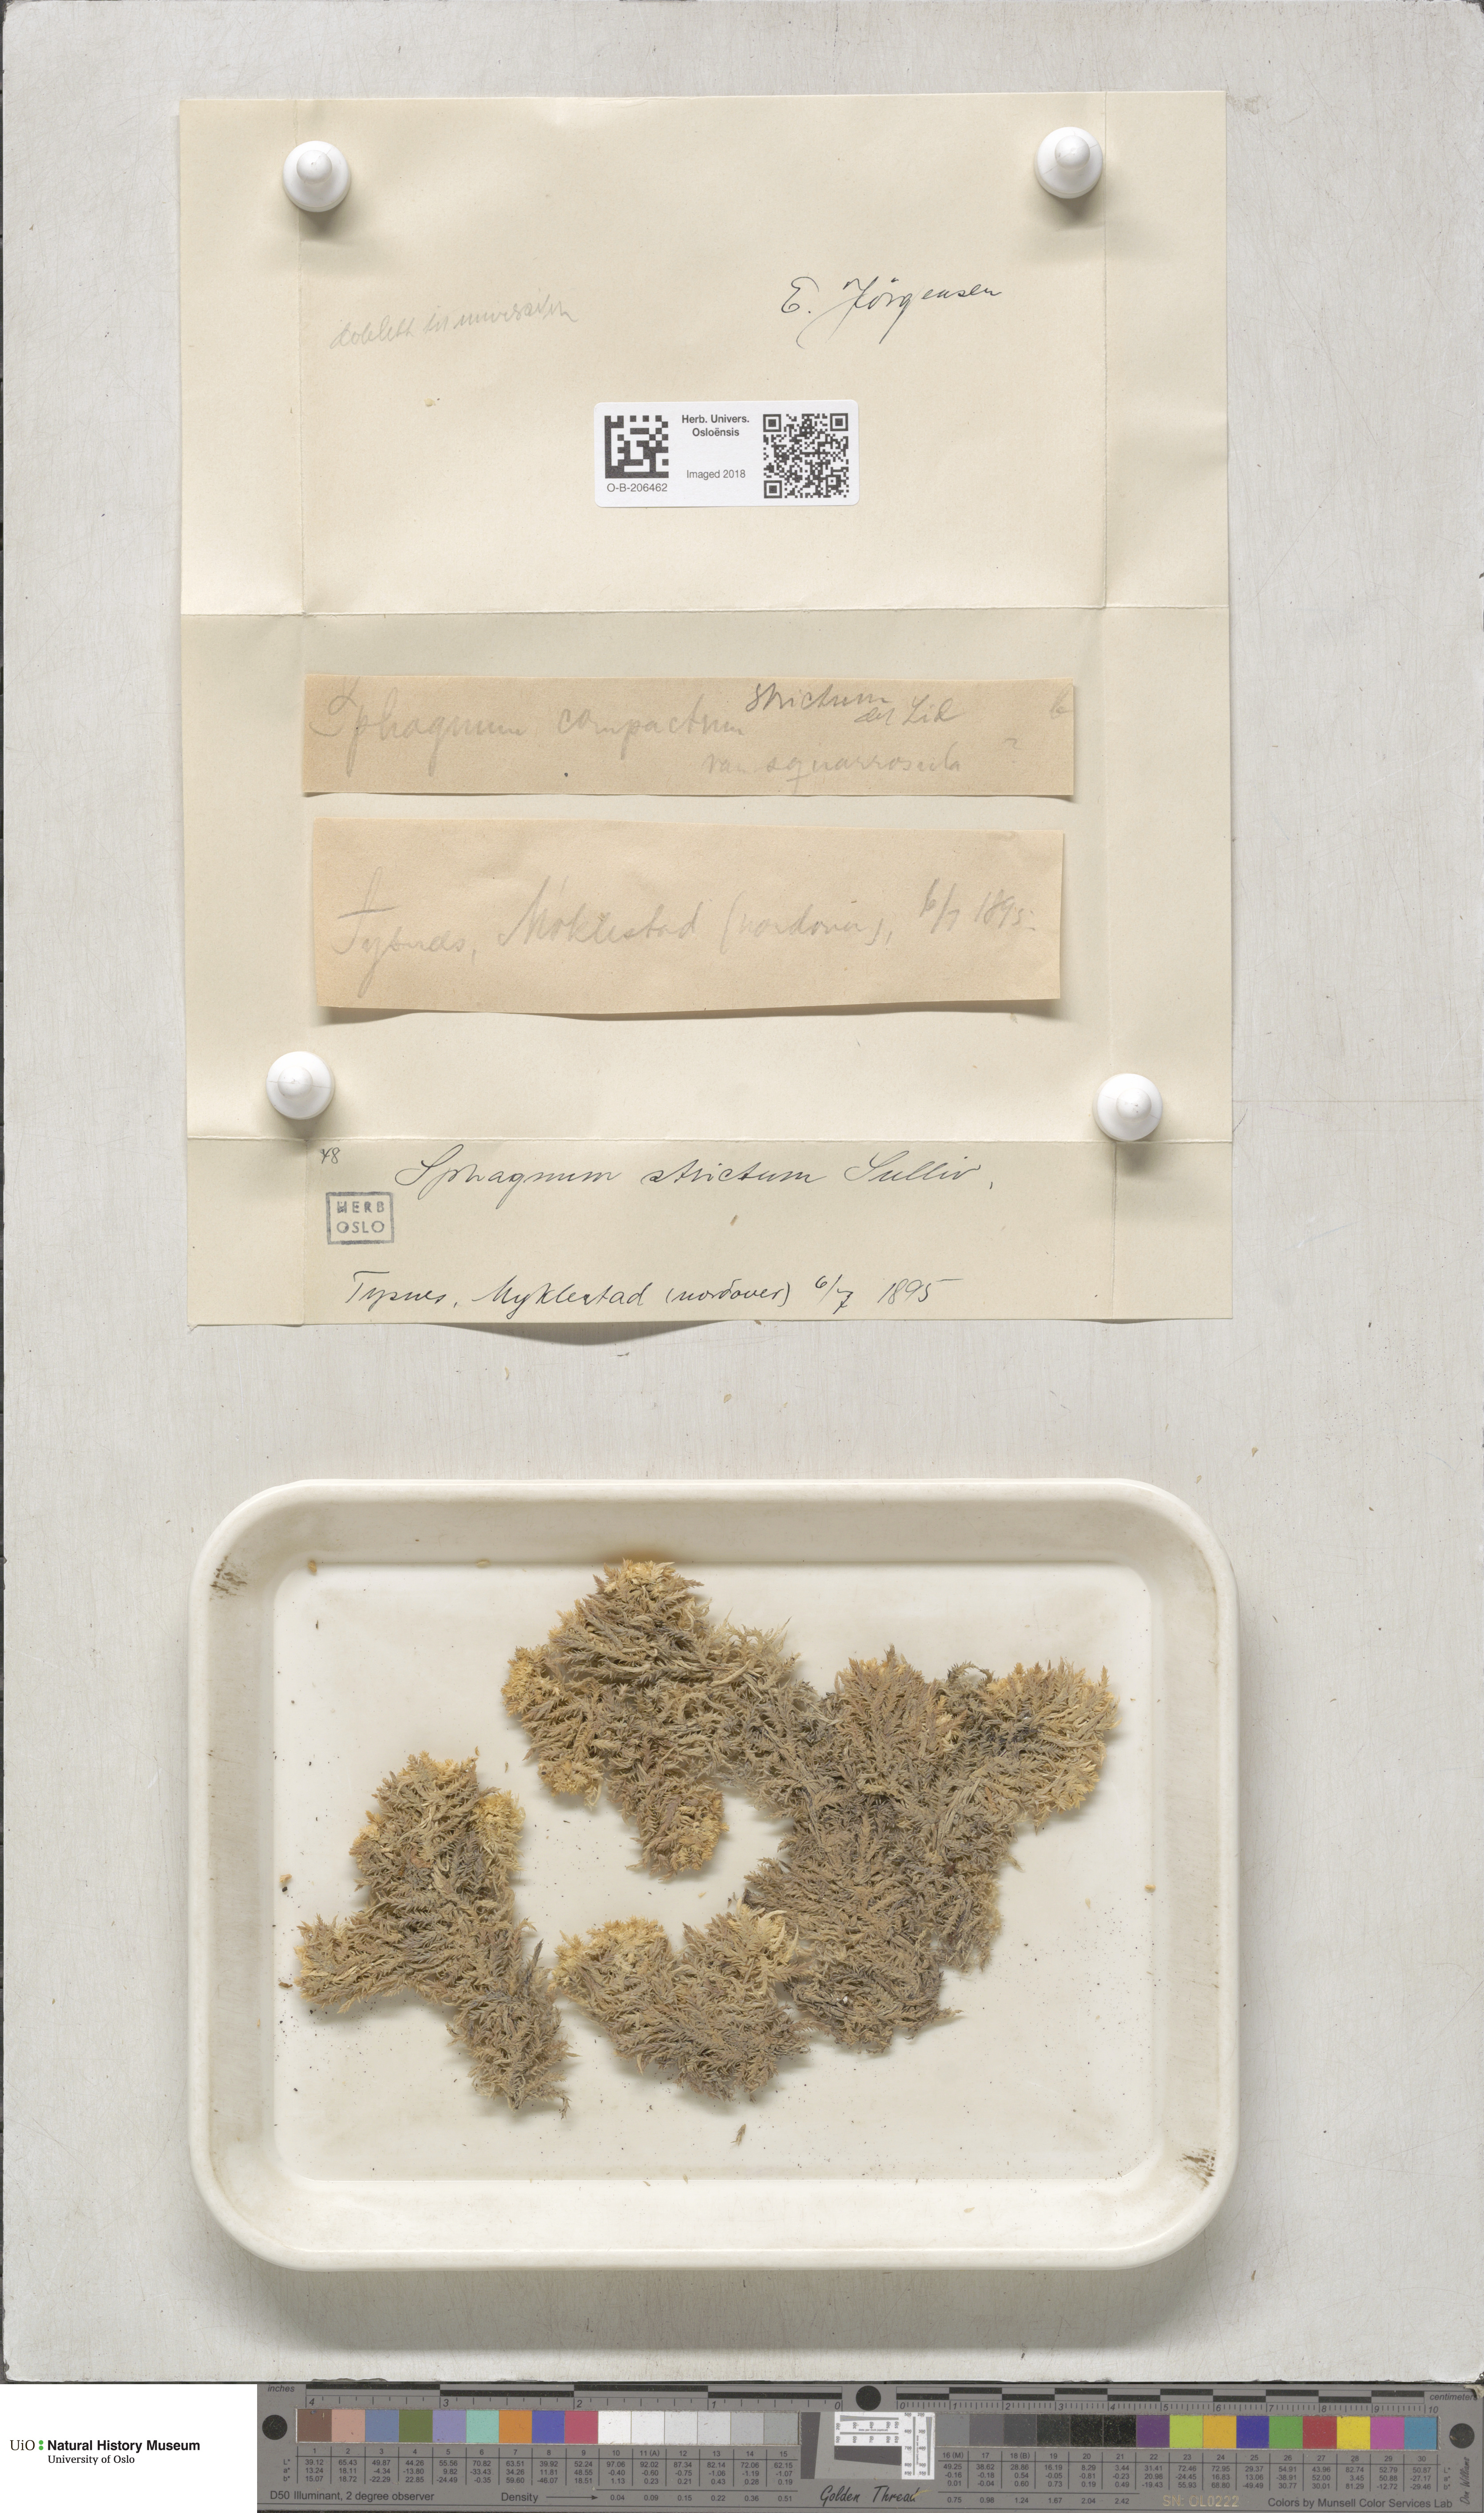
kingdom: Plantae
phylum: Bryophyta
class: Sphagnopsida
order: Sphagnales
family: Sphagnaceae
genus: Sphagnum
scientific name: Sphagnum strictum
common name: Pale bog-moss
